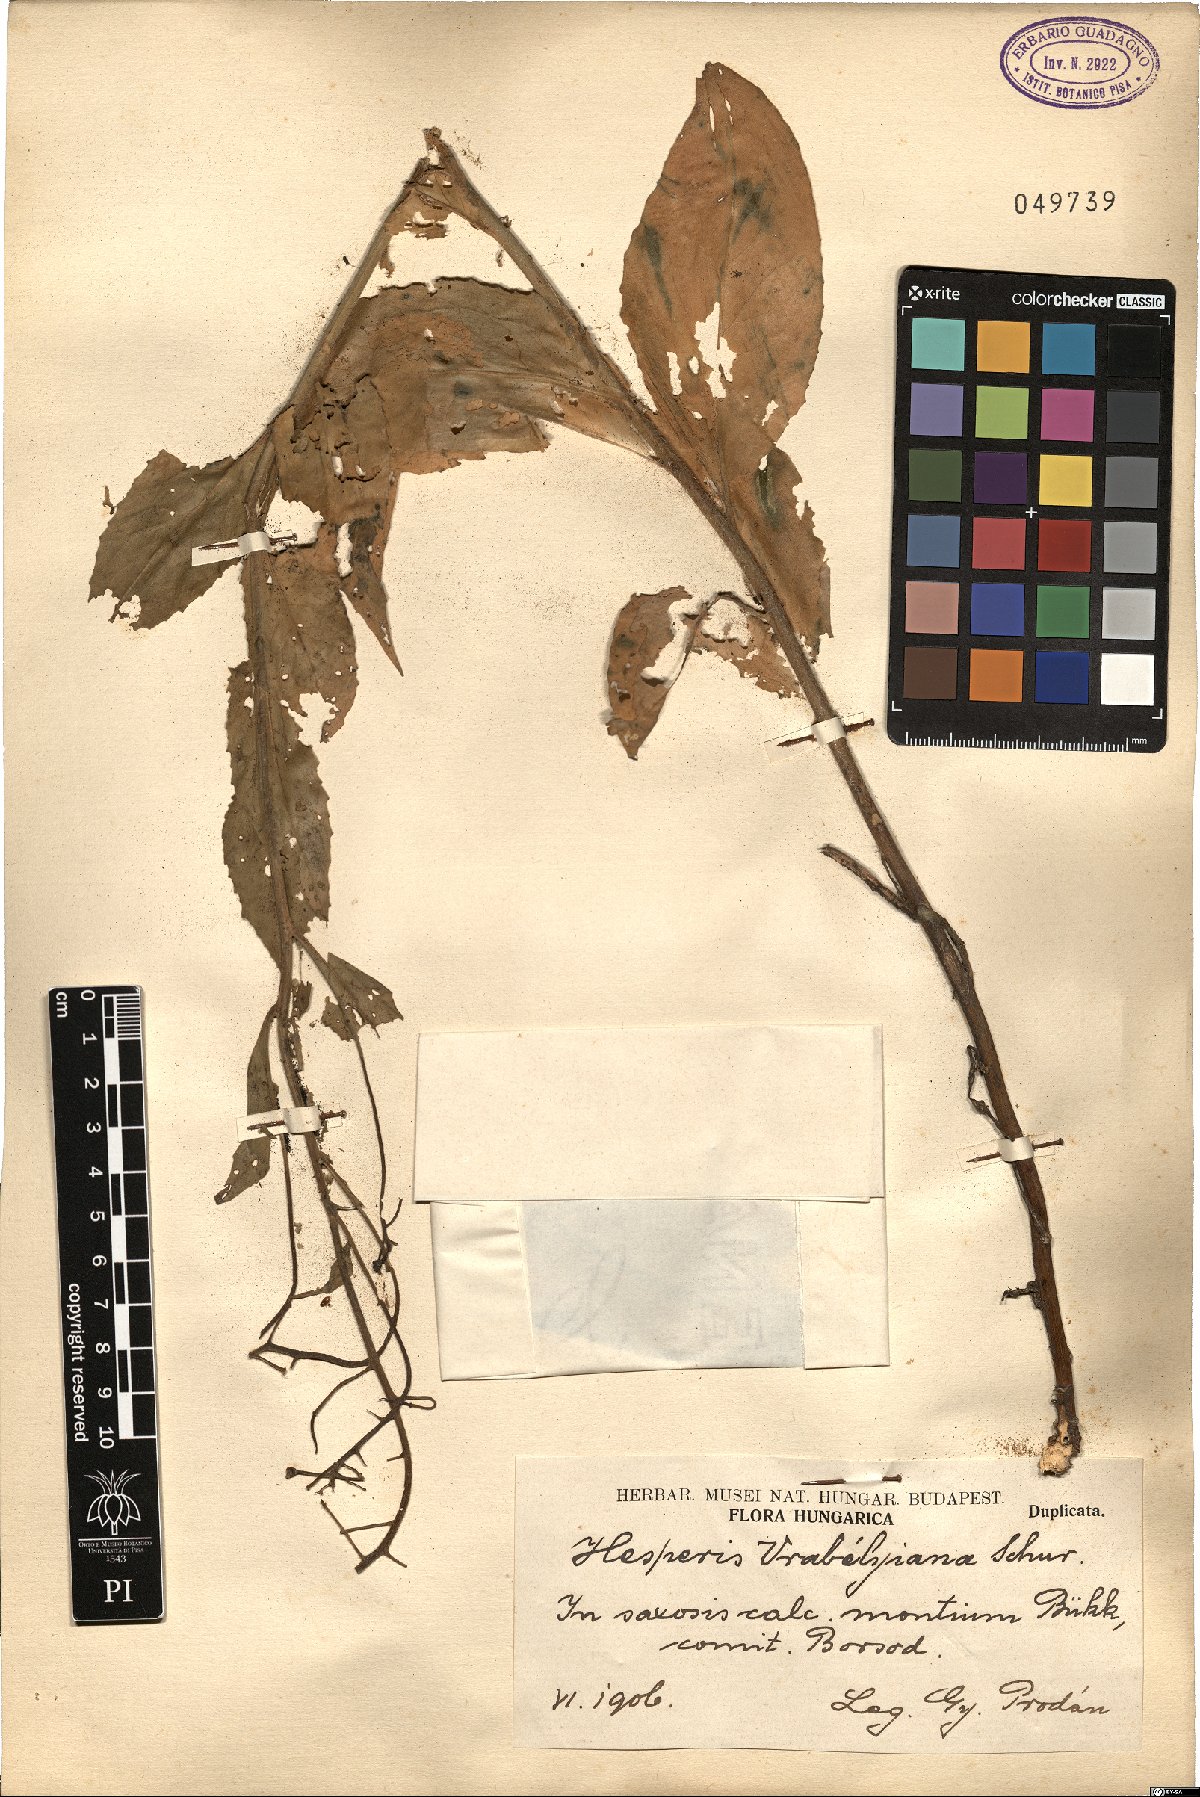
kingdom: Plantae
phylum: Tracheophyta
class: Magnoliopsida
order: Brassicales
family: Brassicaceae
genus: Hesperis
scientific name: Hesperis matronalis
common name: Dame's-violet
